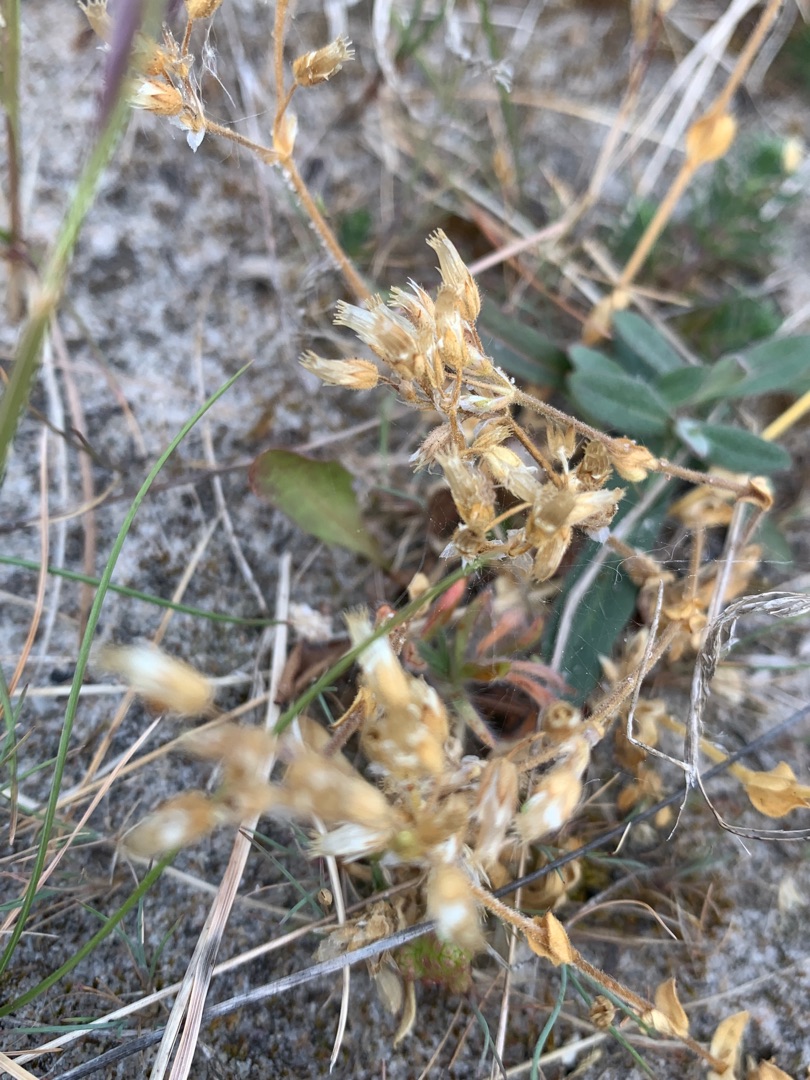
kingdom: Plantae
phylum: Tracheophyta
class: Magnoliopsida
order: Caryophyllales
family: Caryophyllaceae
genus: Cerastium
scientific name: Cerastium semidecandrum
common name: Femhannet hønsetarm
